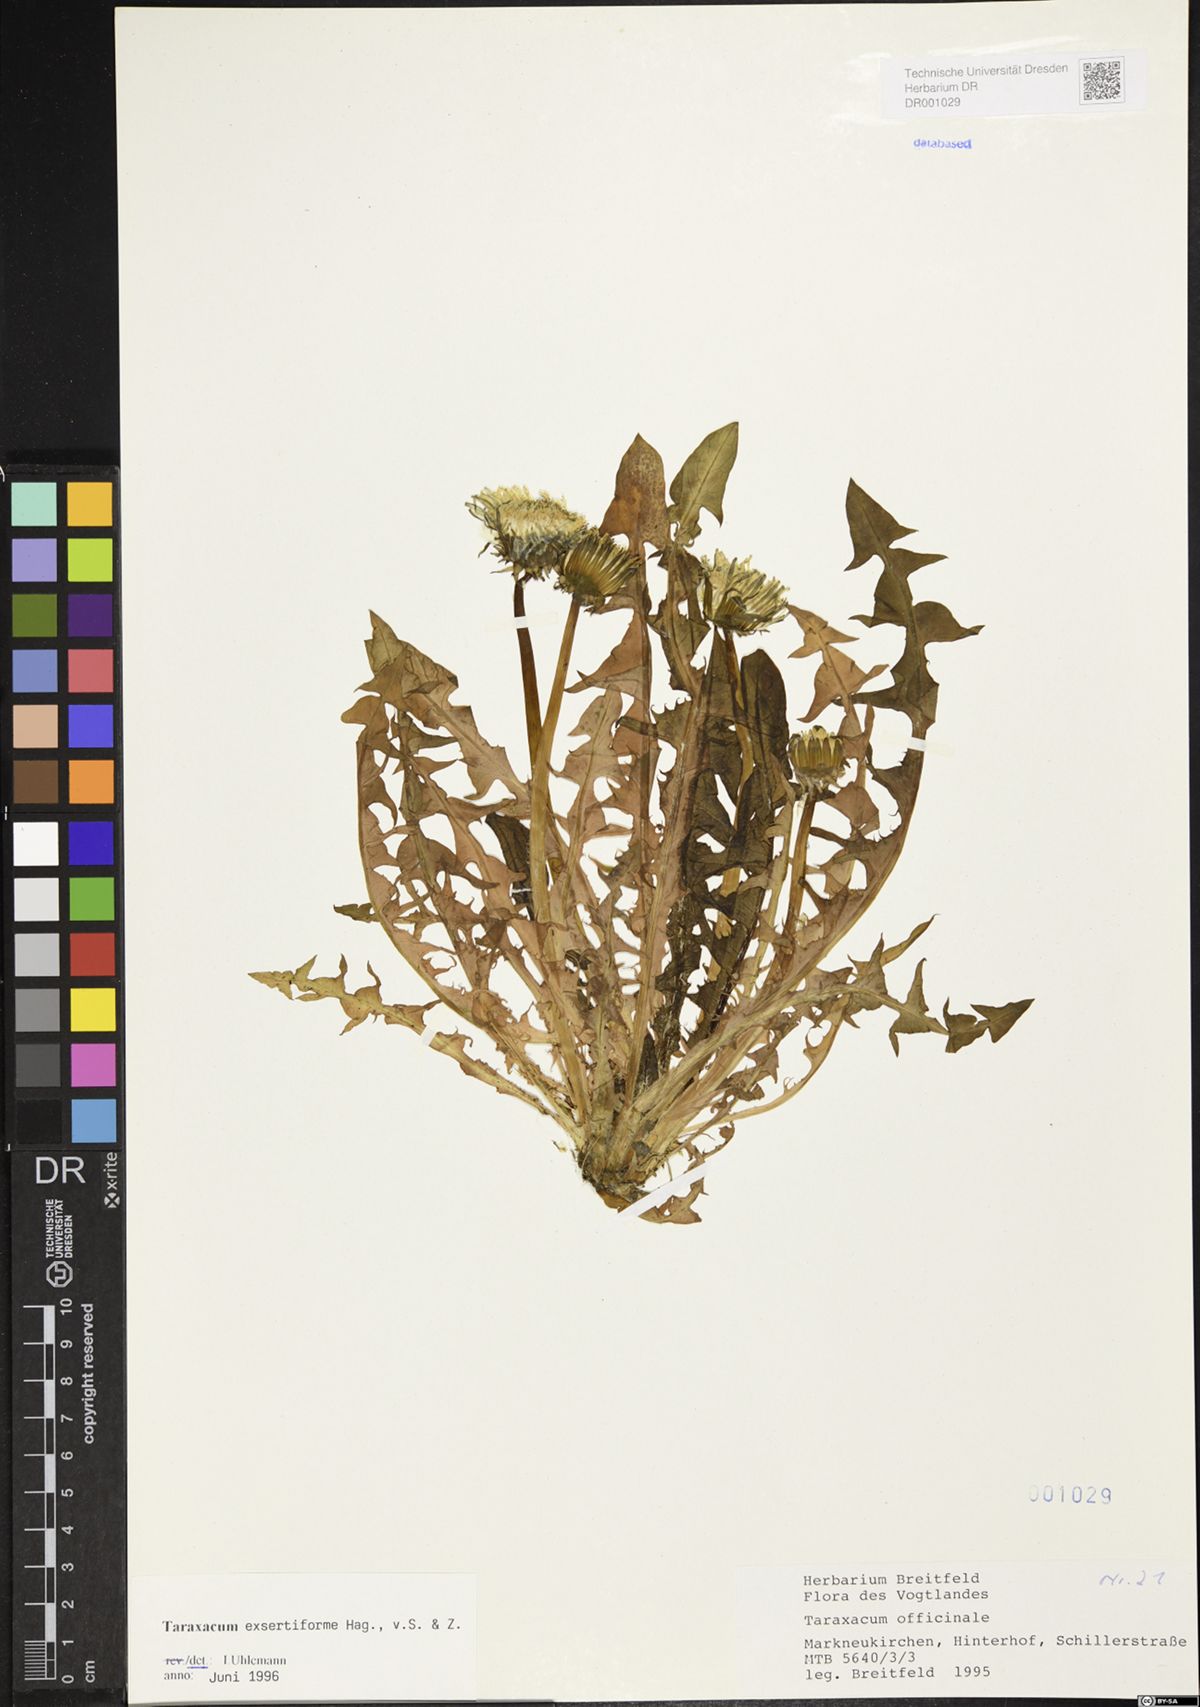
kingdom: Plantae
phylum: Tracheophyta
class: Magnoliopsida
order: Asterales
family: Asteraceae
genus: Taraxacum
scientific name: Taraxacum exsertiforme
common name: Erect-bracted dandelion
